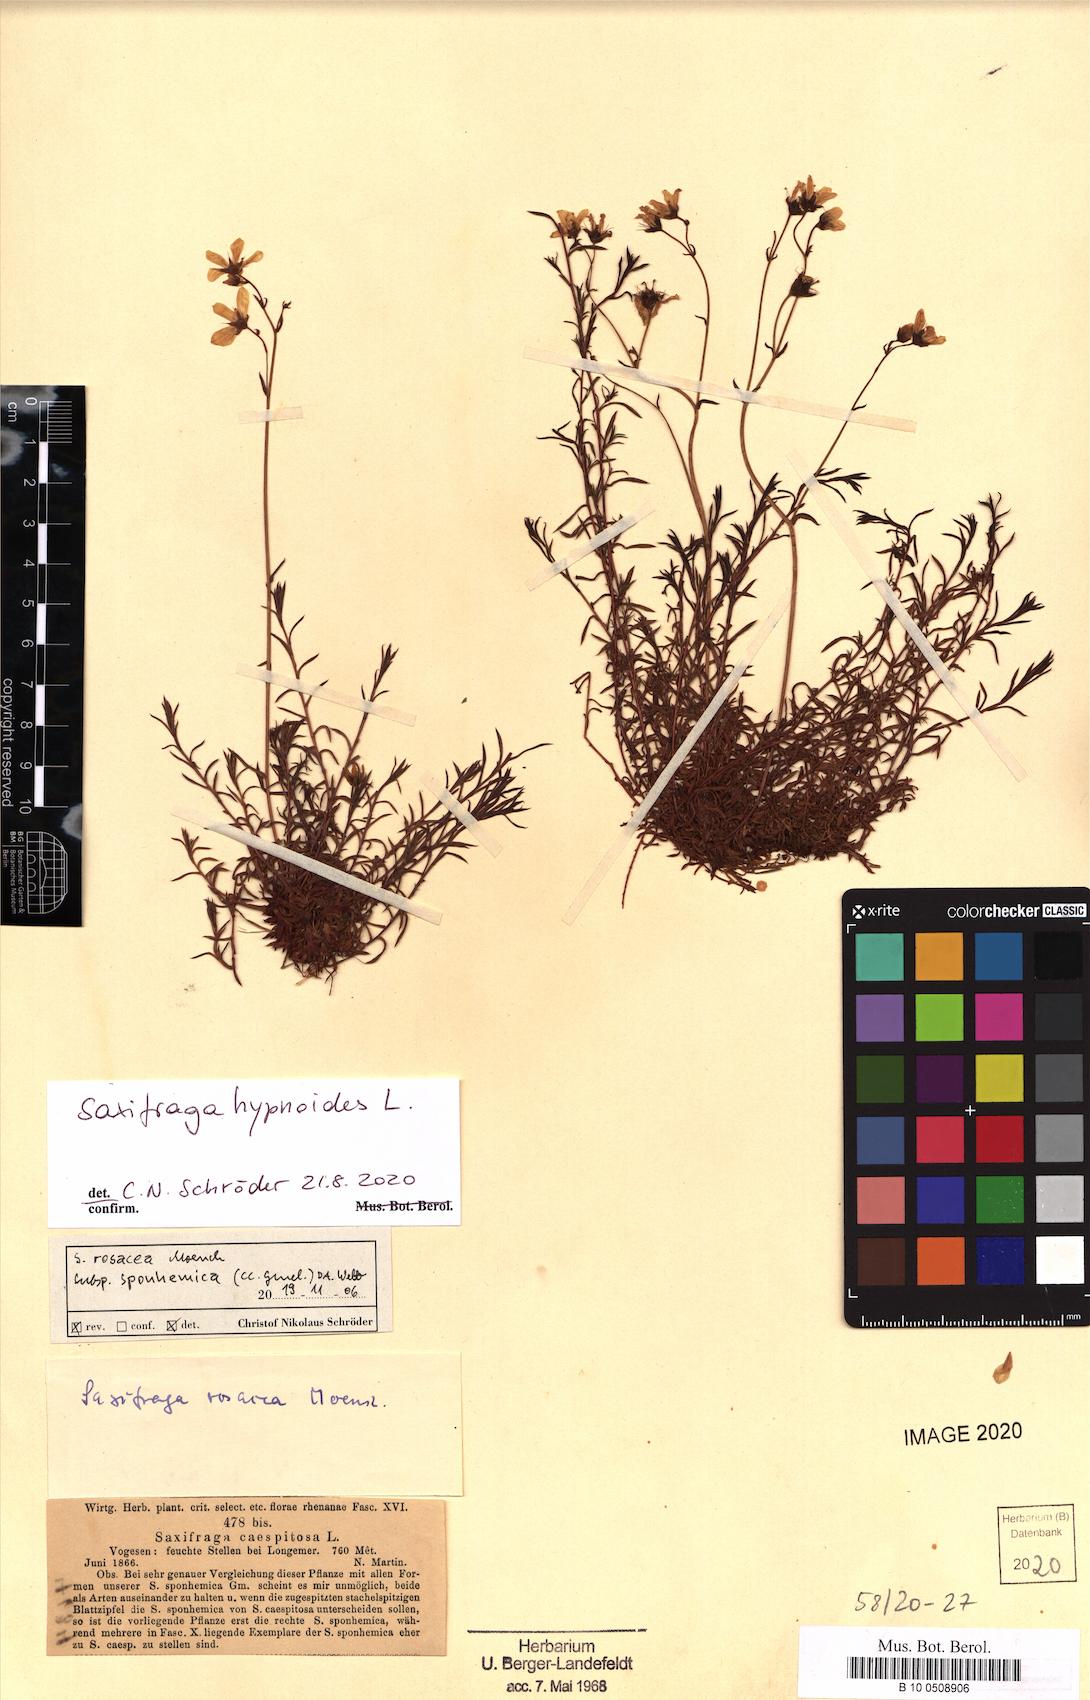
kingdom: Plantae
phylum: Tracheophyta
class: Magnoliopsida
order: Saxifragales
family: Saxifragaceae
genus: Saxifraga
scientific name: Saxifraga hypnoides
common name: Mossy saxifrage
